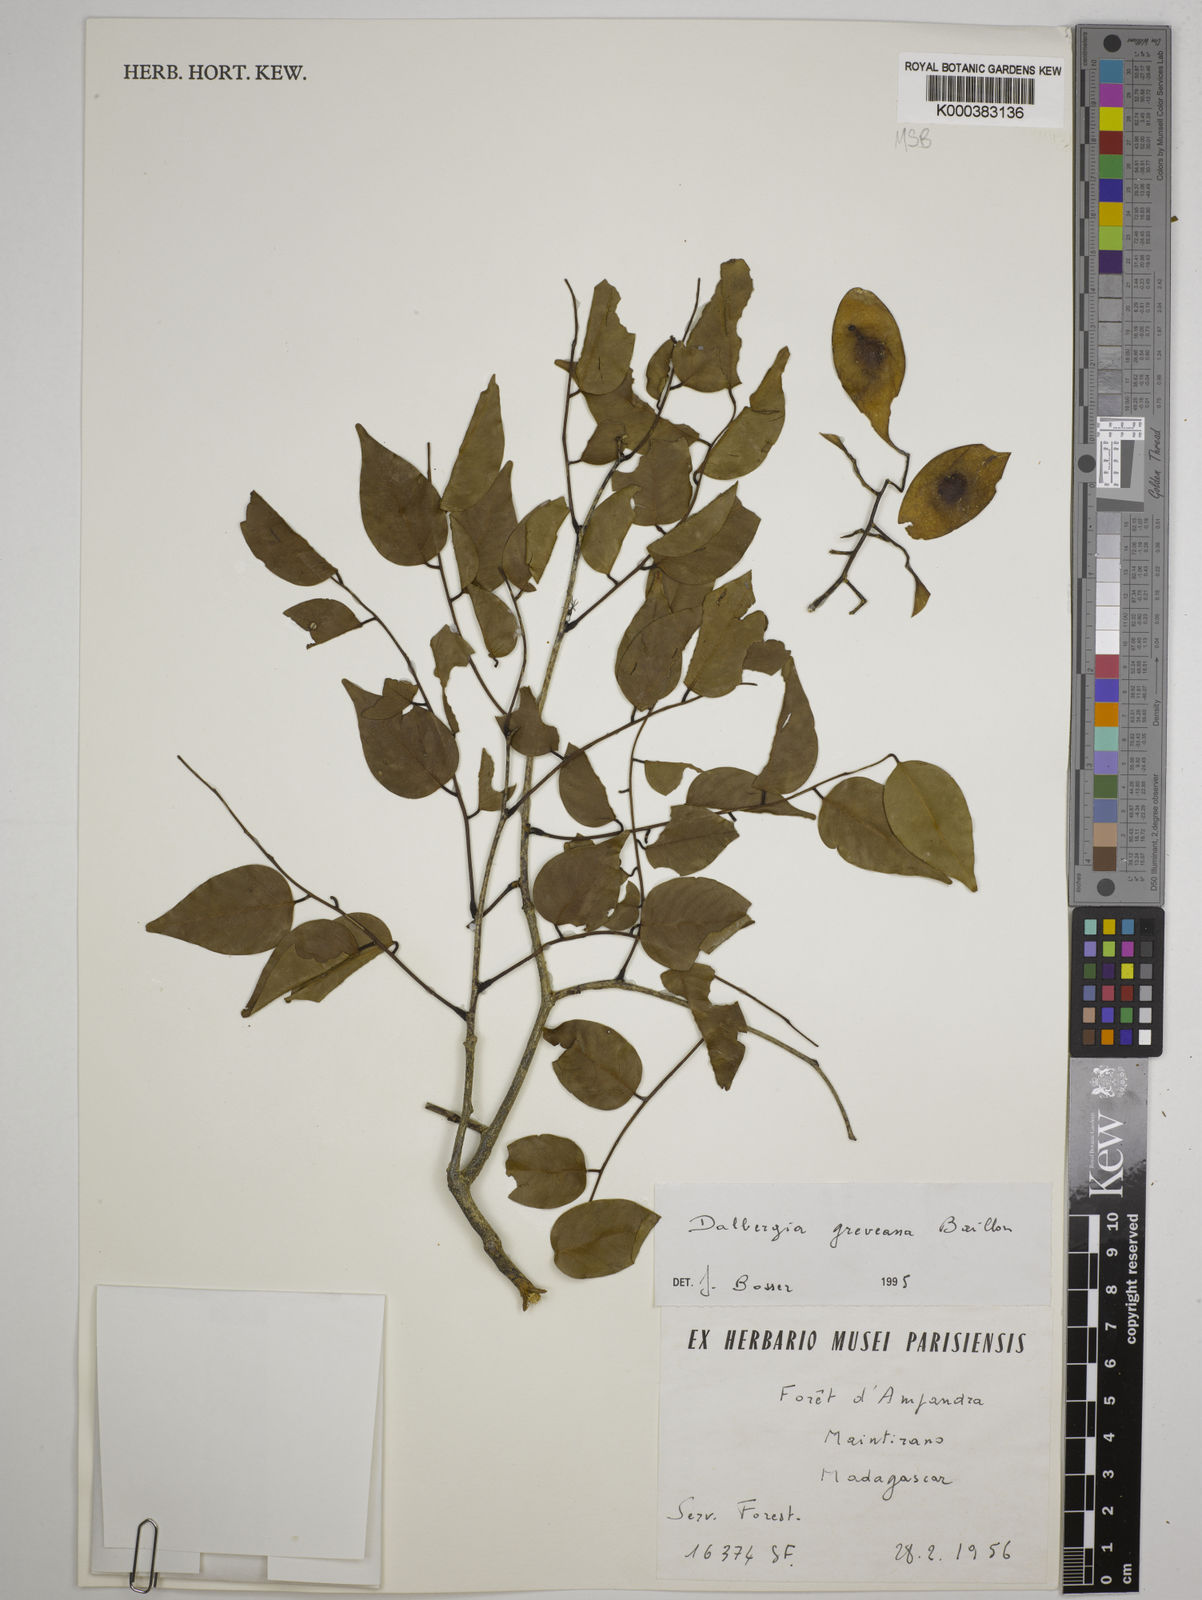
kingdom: Plantae
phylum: Tracheophyta
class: Magnoliopsida
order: Fabales
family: Fabaceae
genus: Dalbergia
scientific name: Dalbergia greveana
